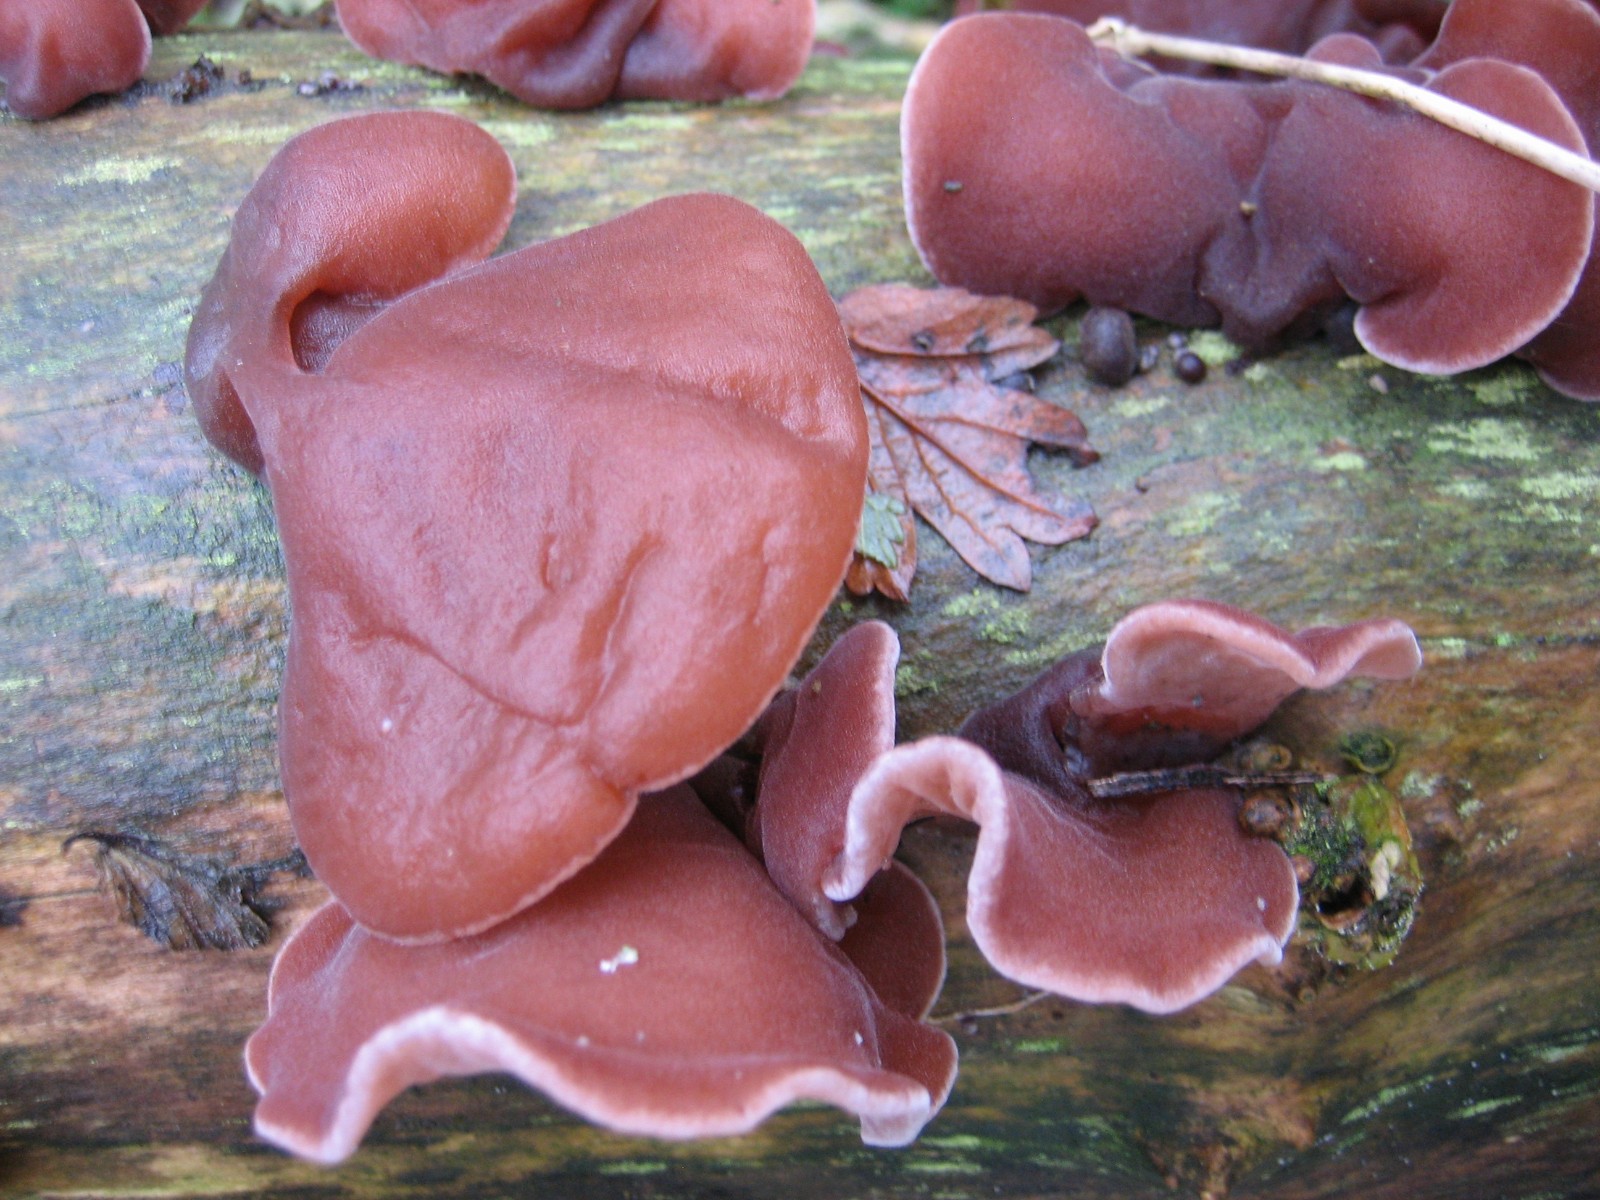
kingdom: Fungi
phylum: Basidiomycota
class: Agaricomycetes
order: Auriculariales
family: Auriculariaceae
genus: Auricularia
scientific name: Auricularia auricula-judae
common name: almindelig judasøre
